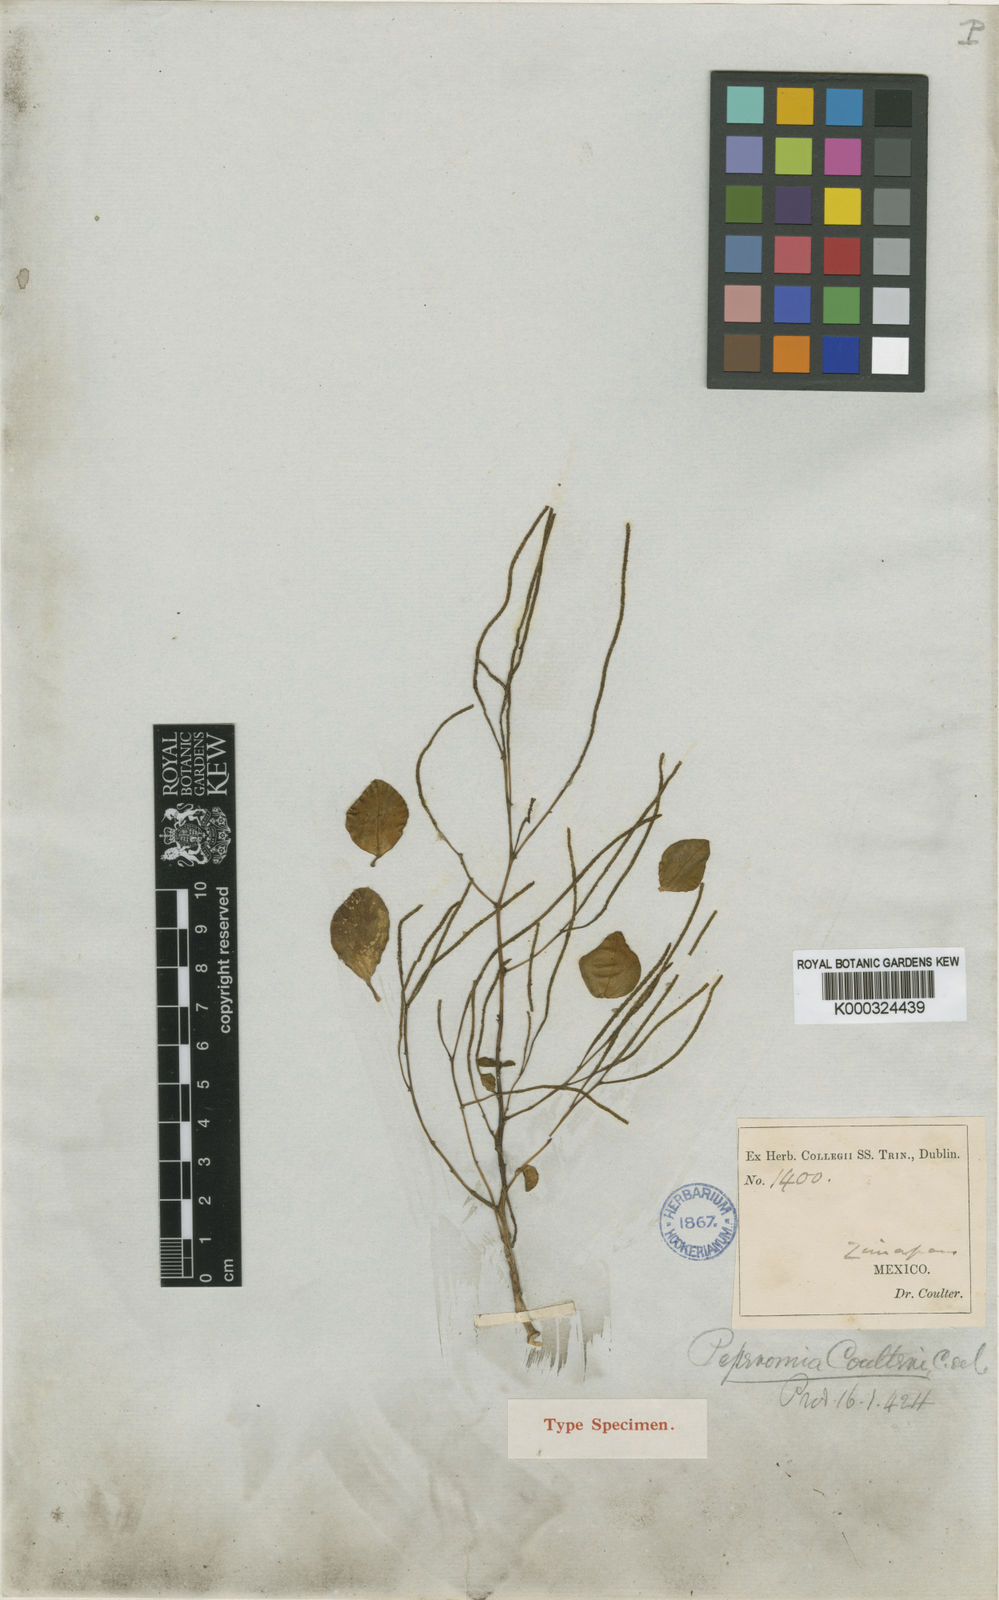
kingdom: Plantae
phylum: Tracheophyta
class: Magnoliopsida
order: Piperales
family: Piperaceae
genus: Peperomia
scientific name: Peperomia coulteri
